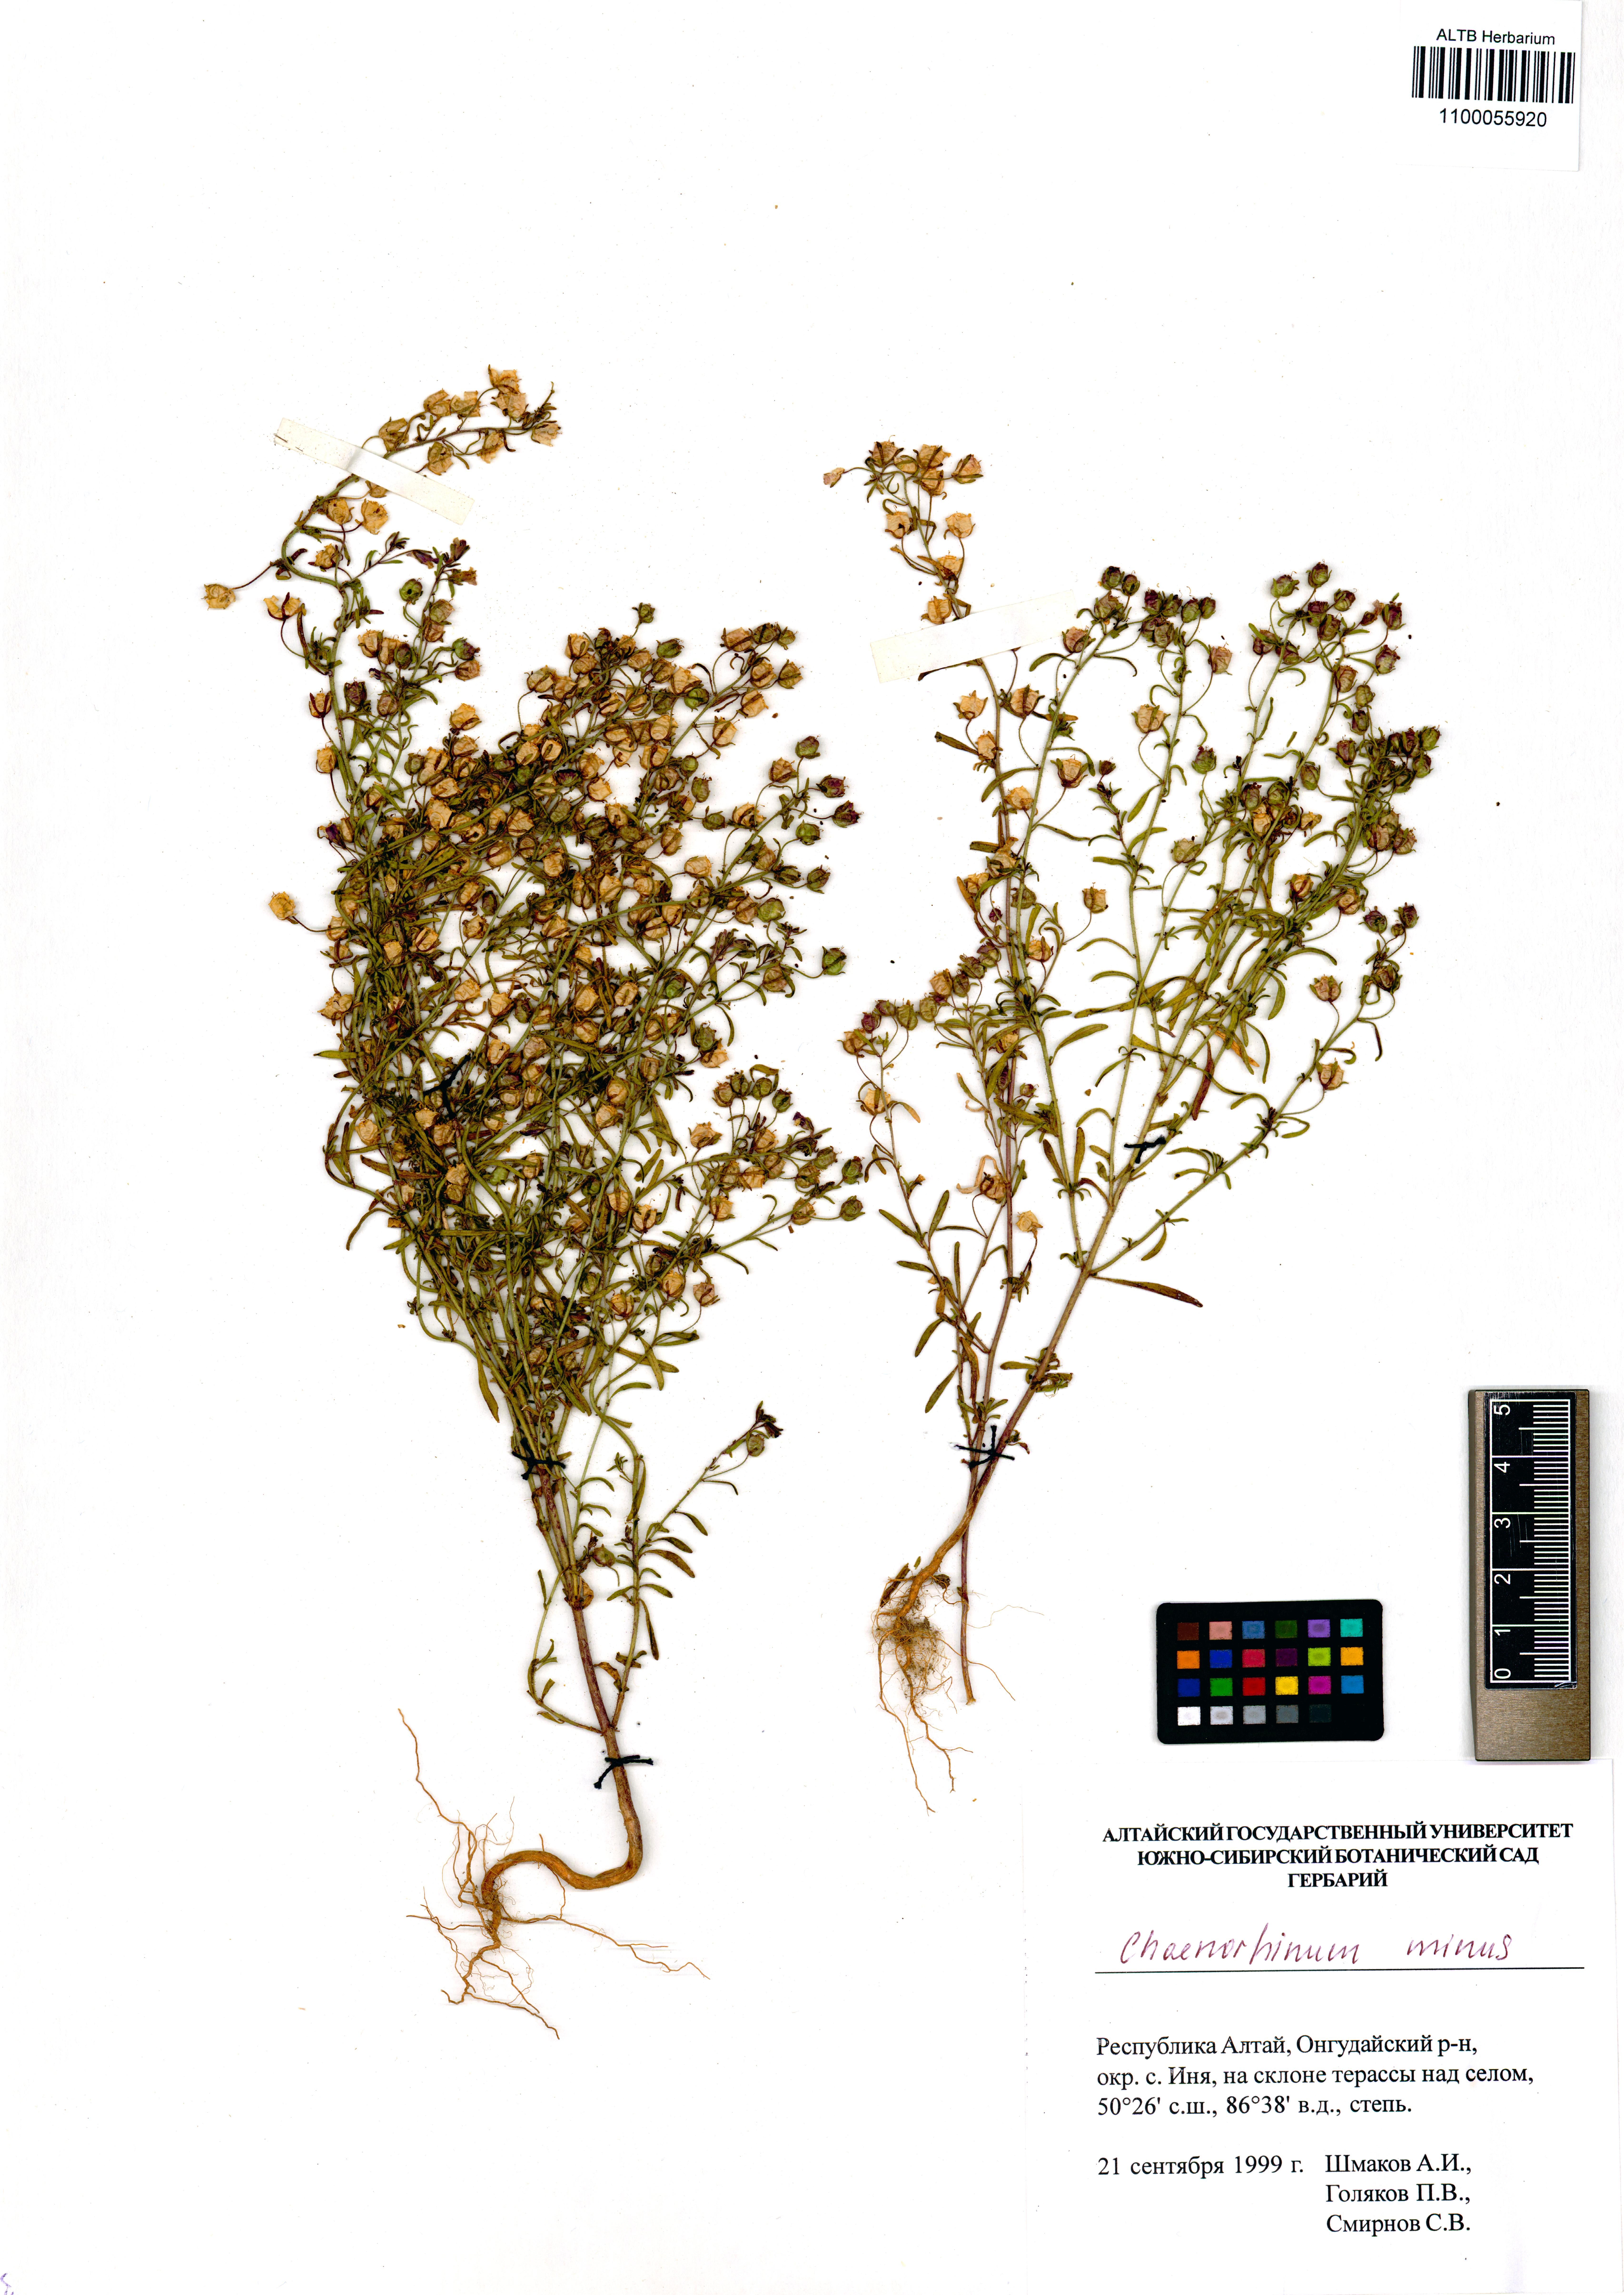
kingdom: Plantae
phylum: Tracheophyta
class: Magnoliopsida
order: Lamiales
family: Plantaginaceae
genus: Chaenorhinum
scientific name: Chaenorhinum minus
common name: Dwarf snapdragon
